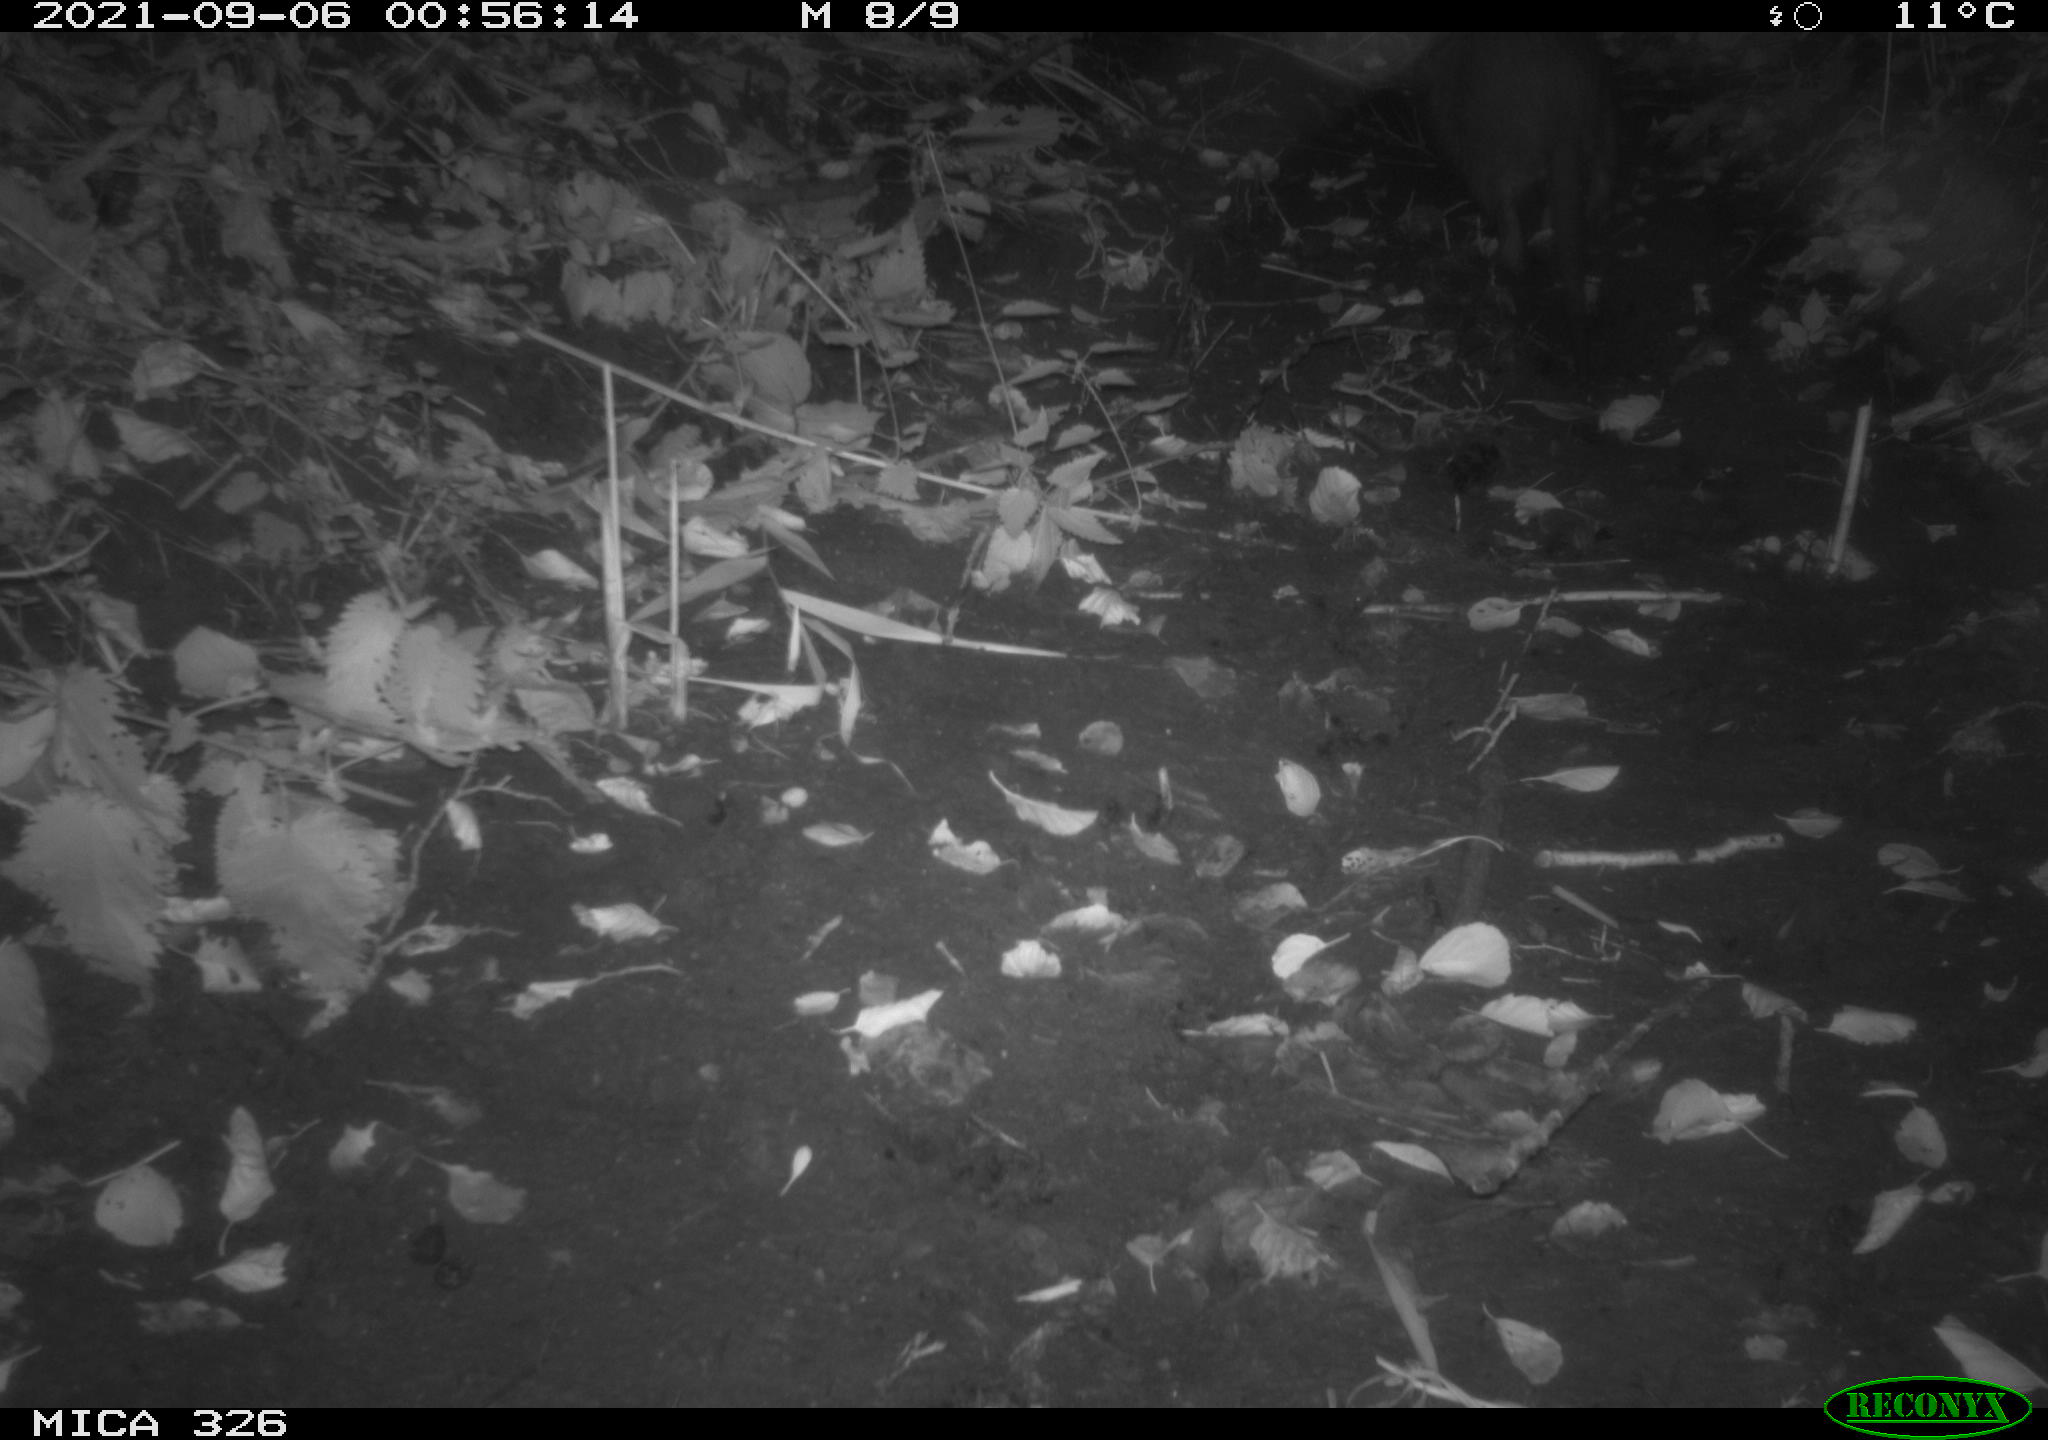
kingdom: Animalia
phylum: Chordata
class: Mammalia
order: Rodentia
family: Myocastoridae
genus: Myocastor
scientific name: Myocastor coypus
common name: Coypu
